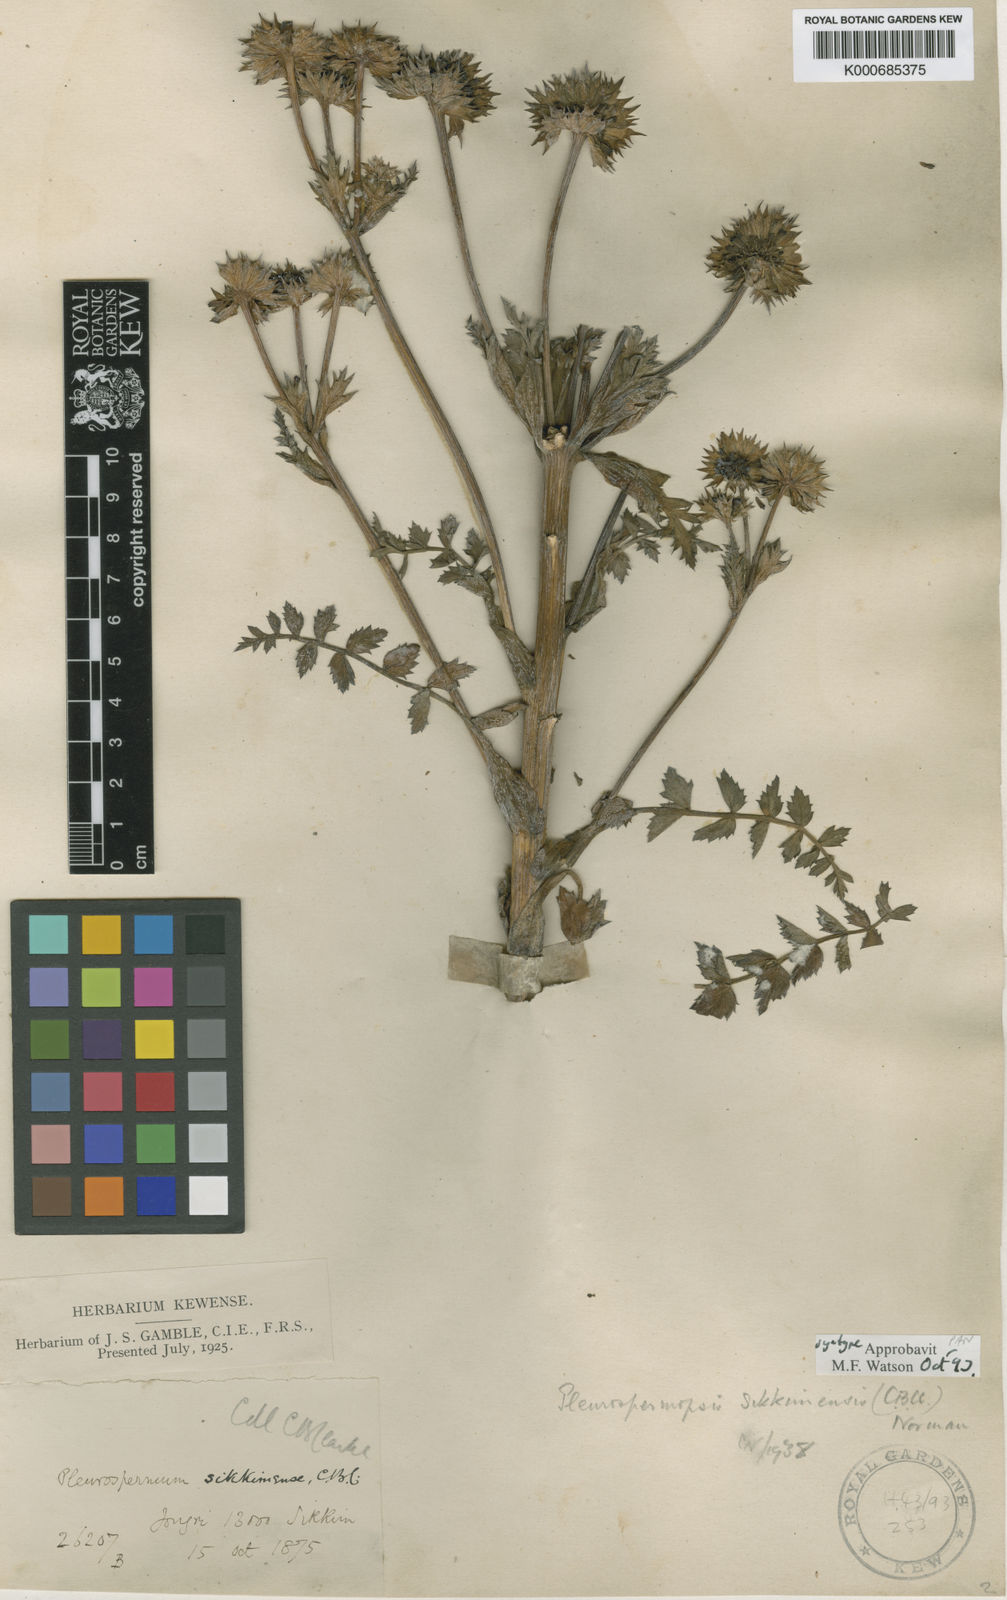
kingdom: Plantae
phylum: Tracheophyta
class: Magnoliopsida
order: Apiales
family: Apiaceae
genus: Pleurospermopsis
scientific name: Pleurospermopsis sikkimensis
